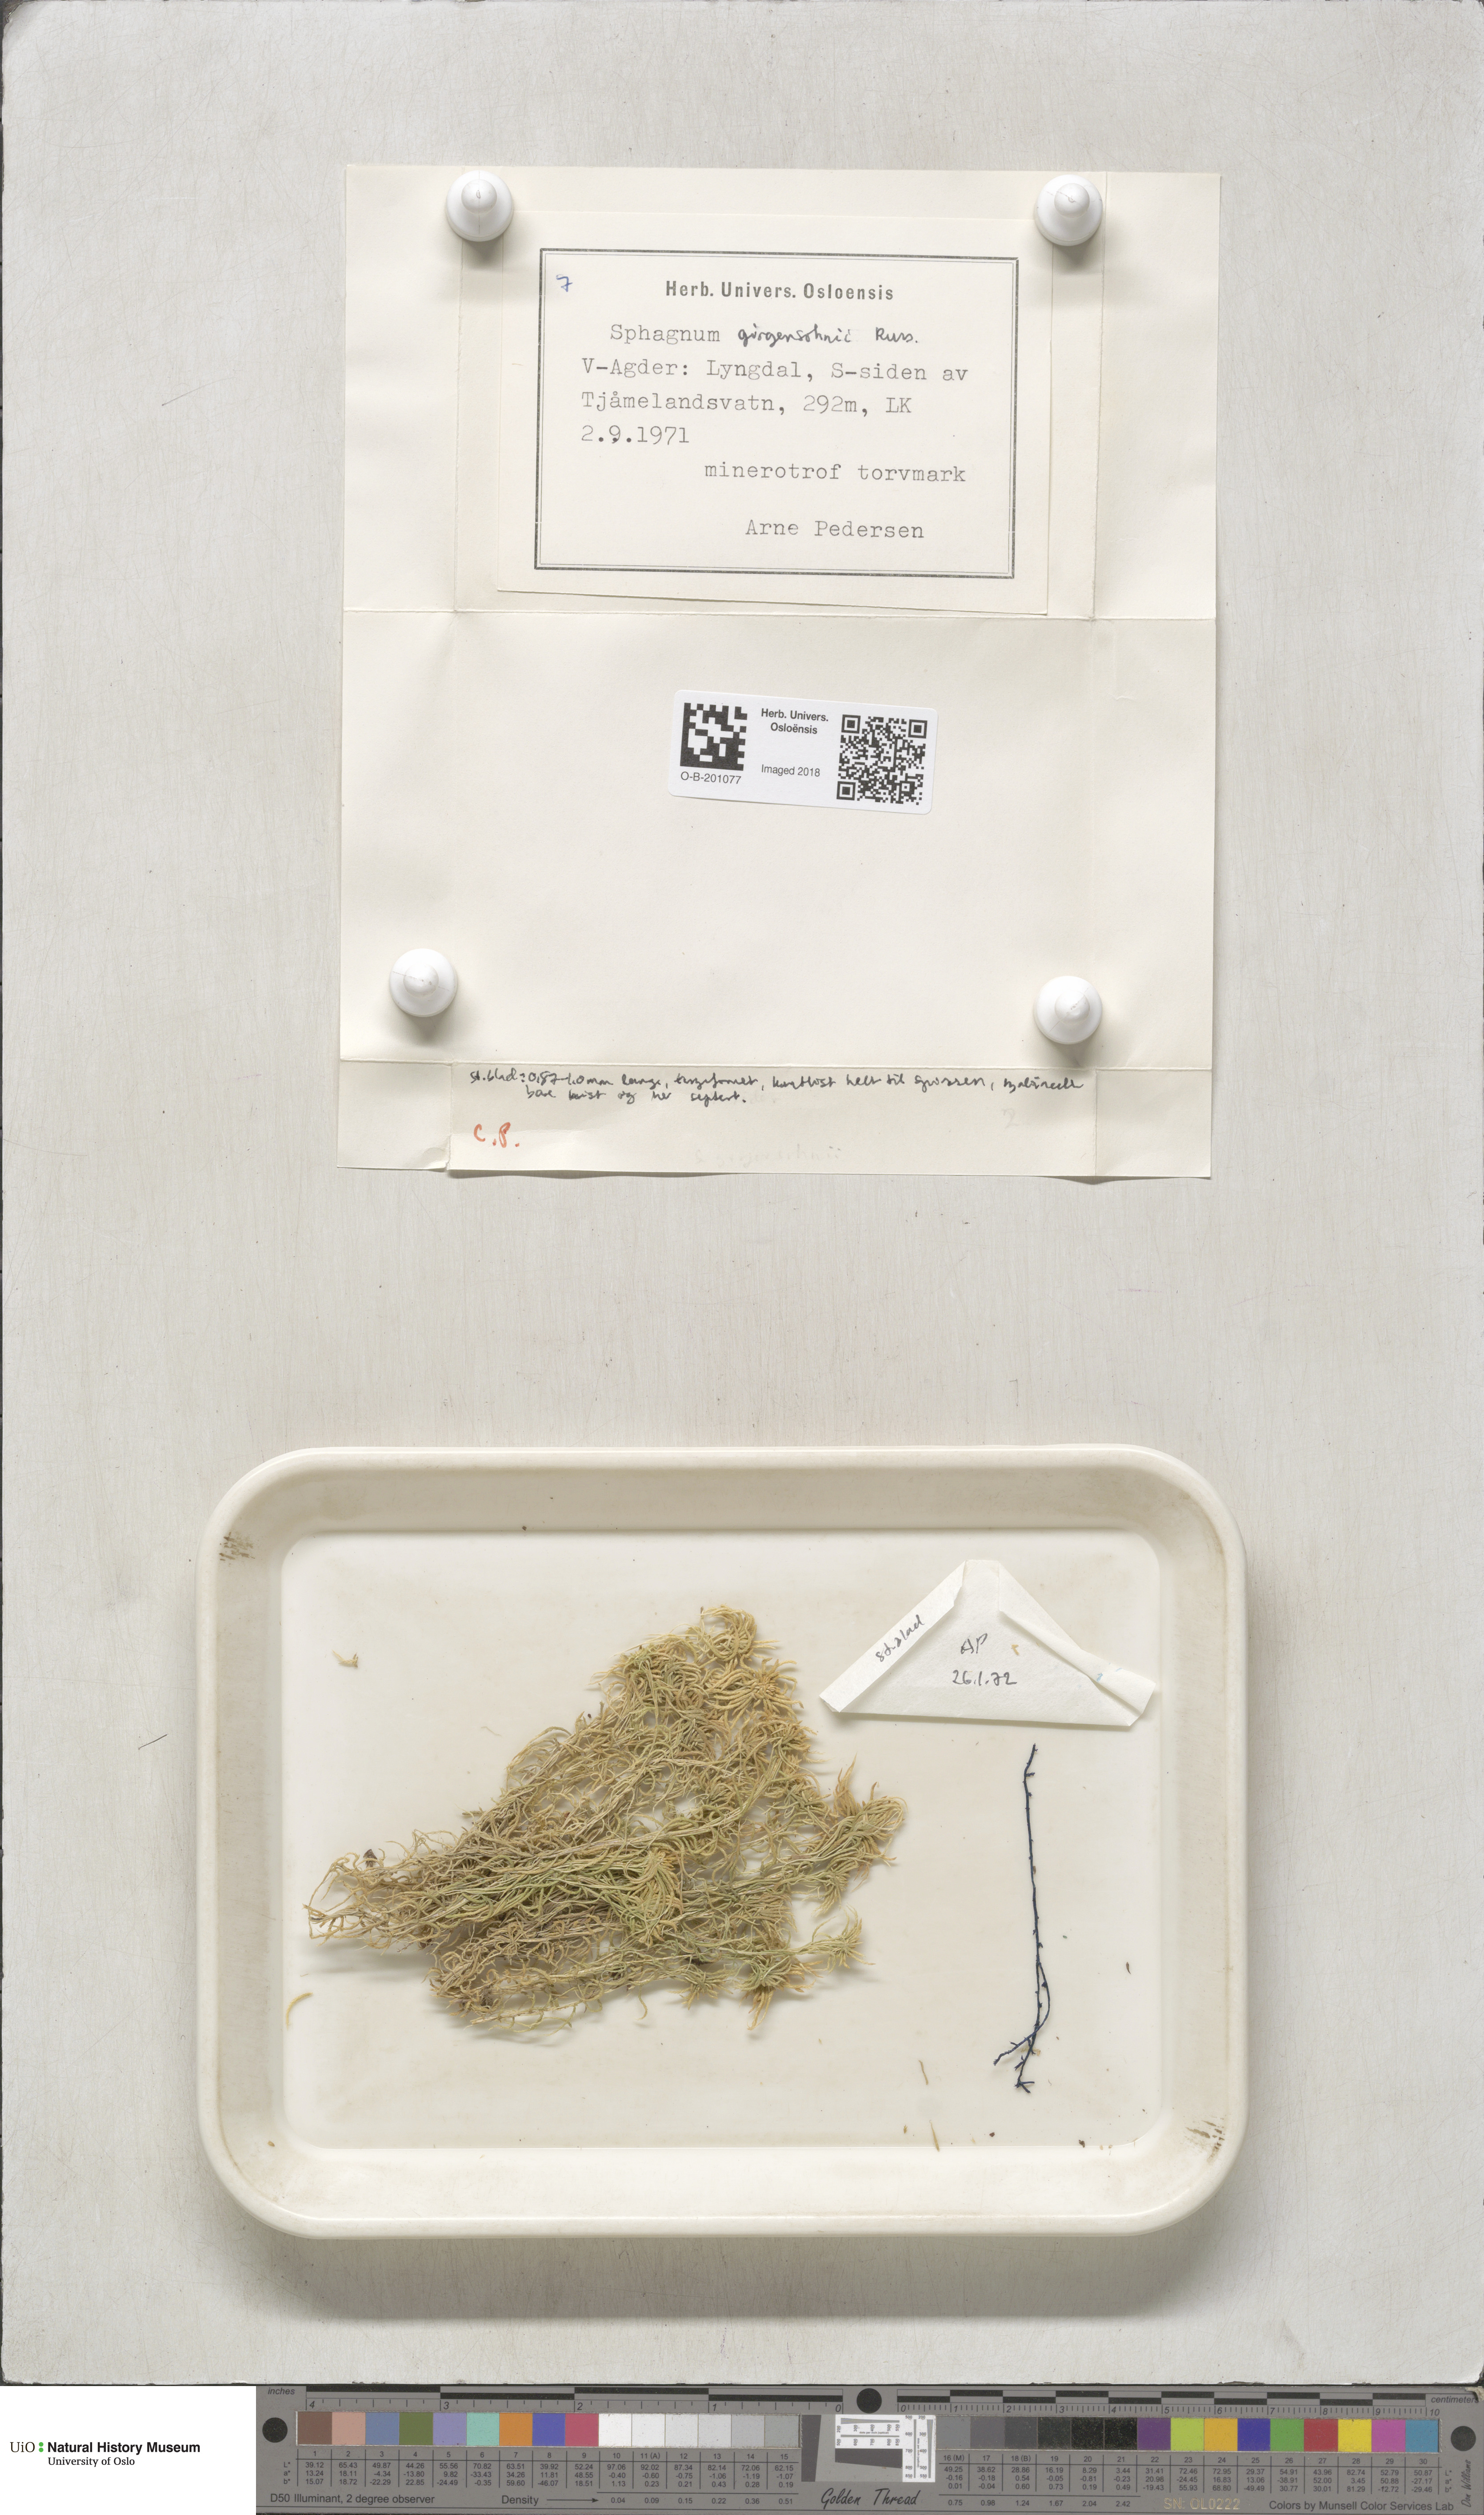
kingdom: Plantae
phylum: Bryophyta
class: Sphagnopsida
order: Sphagnales
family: Sphagnaceae
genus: Sphagnum
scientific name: Sphagnum girgensohnii
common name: Girgensohn's peat moss
